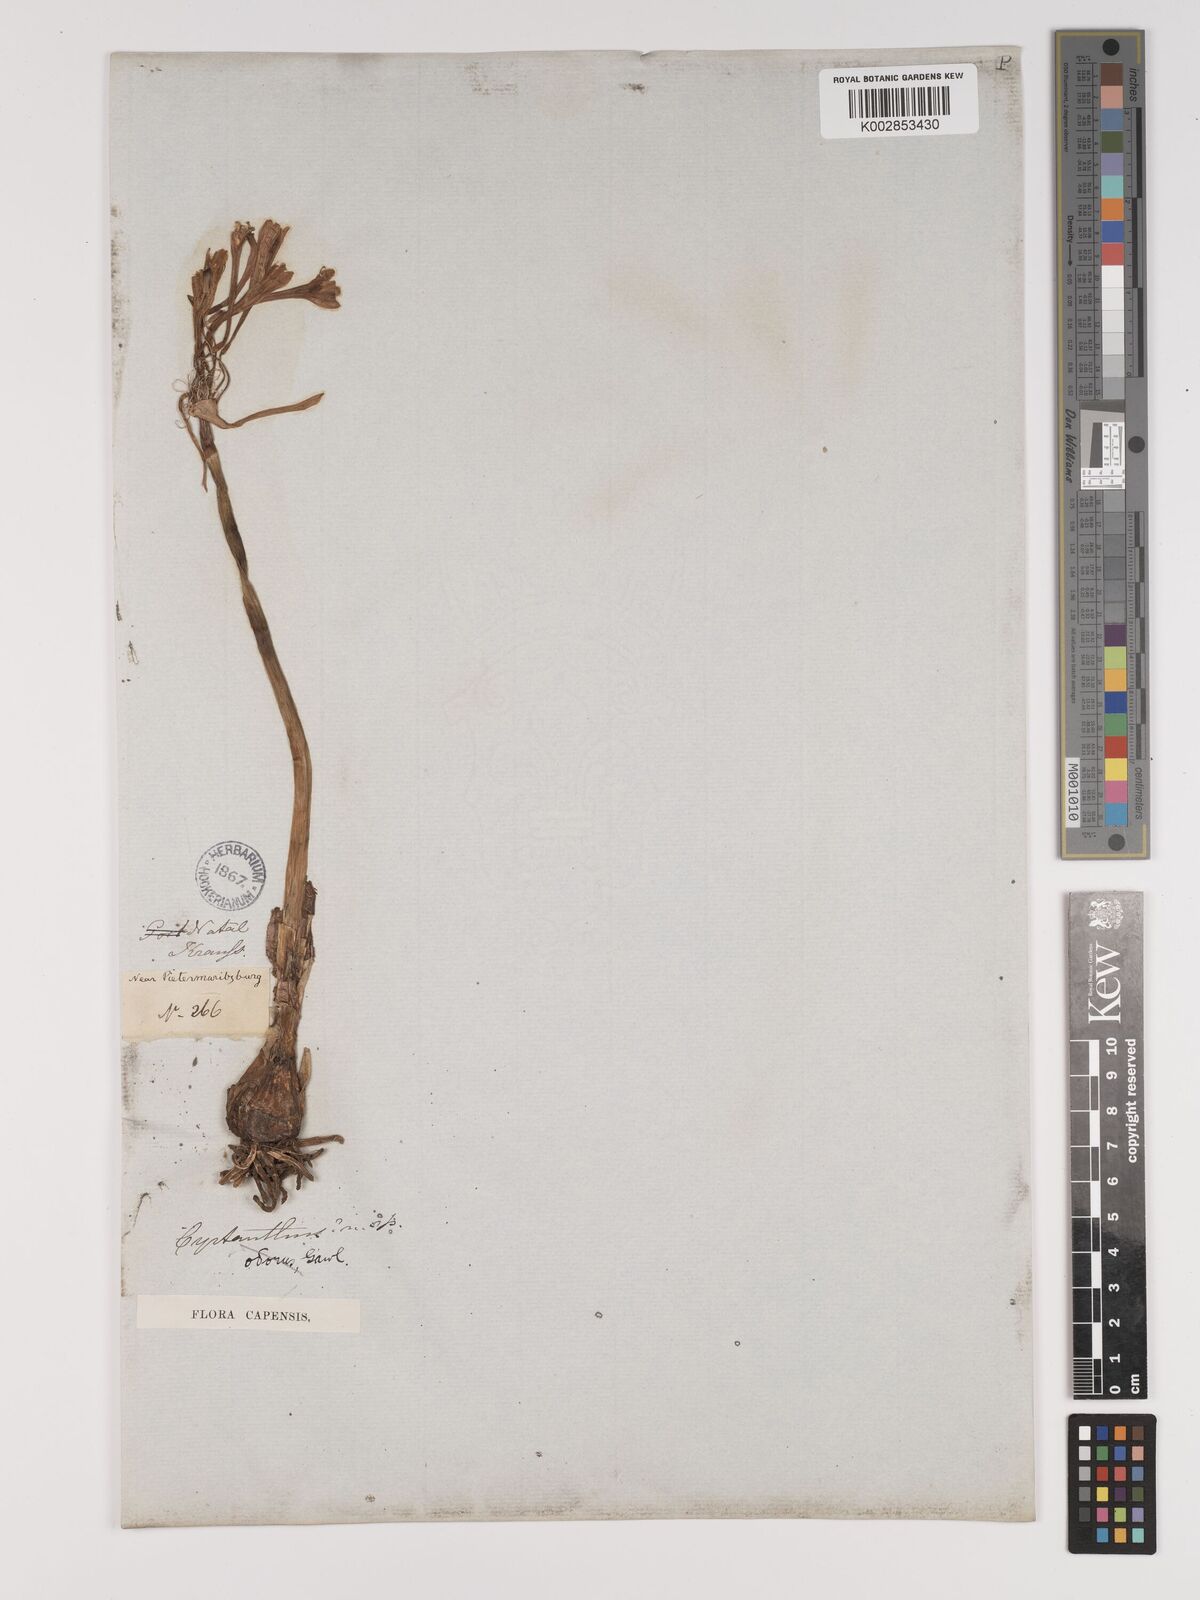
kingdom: Plantae
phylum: Tracheophyta
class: Liliopsida
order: Asparagales
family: Amaryllidaceae
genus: Cyrtanthus
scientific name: Cyrtanthus contractus
